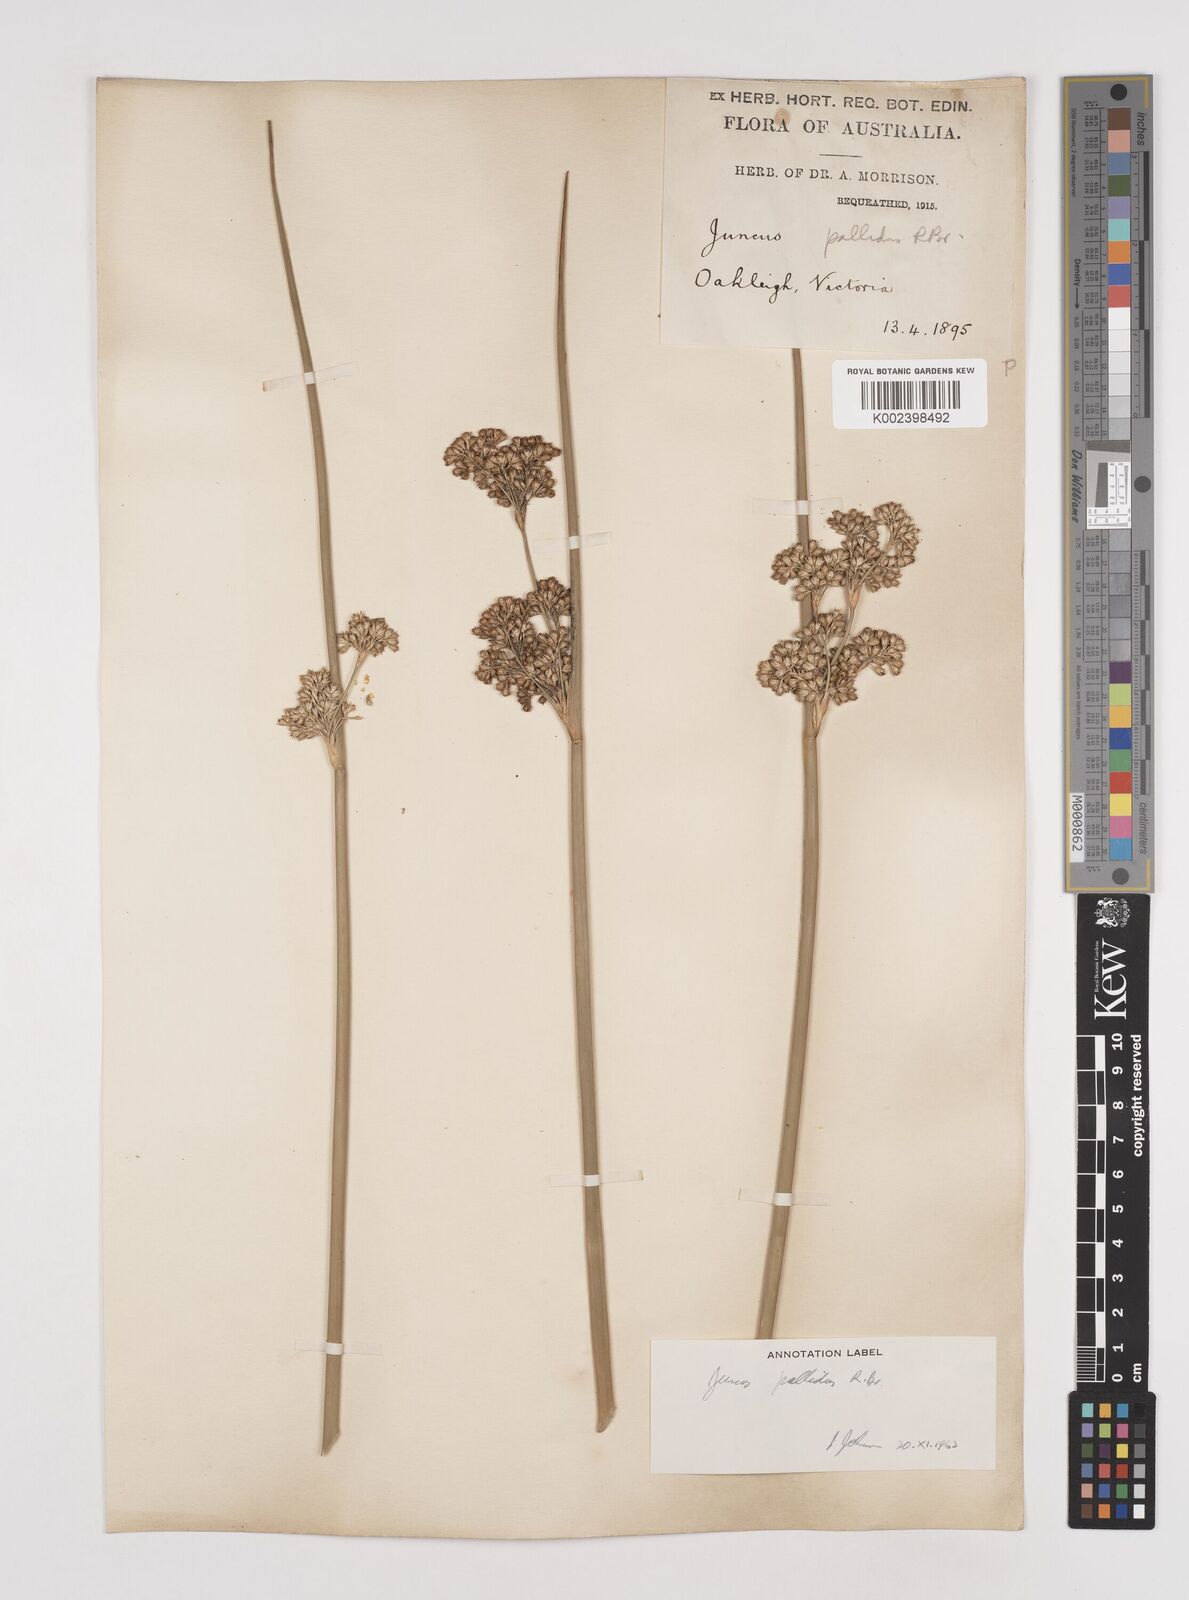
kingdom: Plantae
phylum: Tracheophyta
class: Liliopsida
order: Poales
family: Juncaceae
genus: Juncus
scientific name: Juncus pallidus
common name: Great soft-rush
